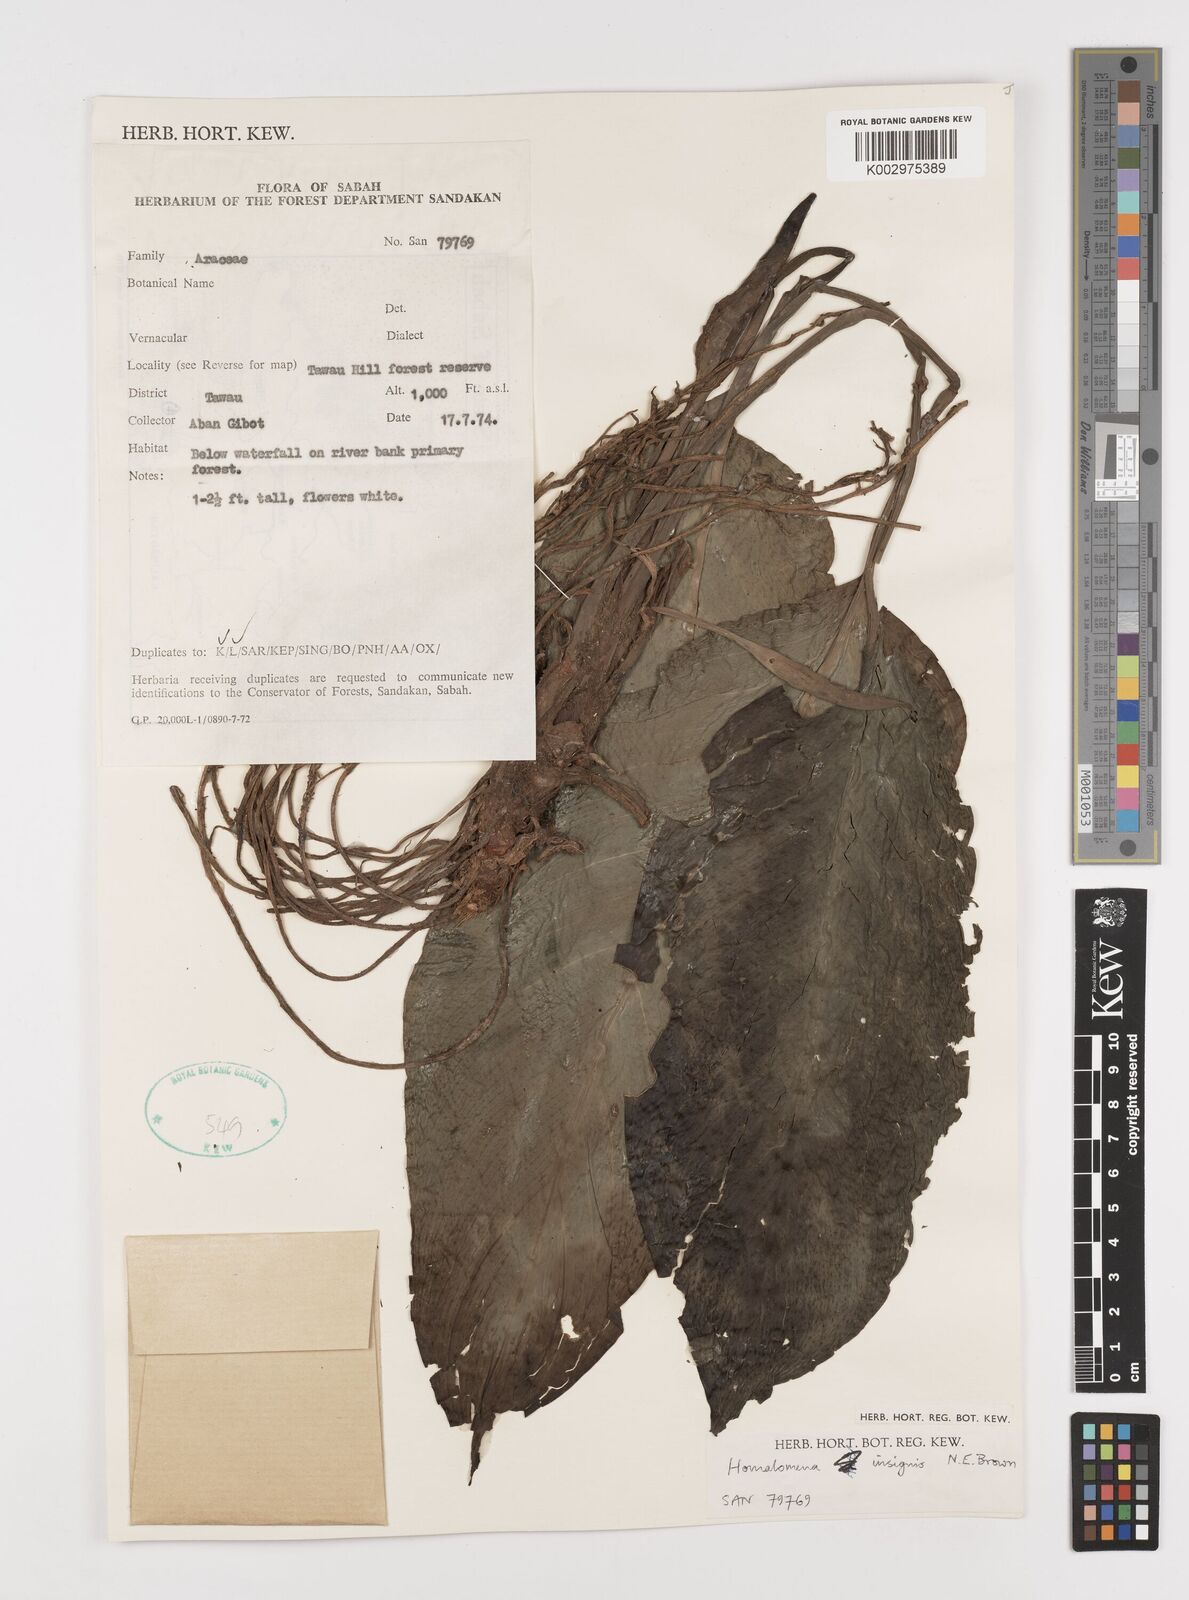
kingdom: Plantae
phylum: Tracheophyta
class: Liliopsida
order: Alismatales
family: Araceae
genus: Homalomena
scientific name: Homalomena insignis
